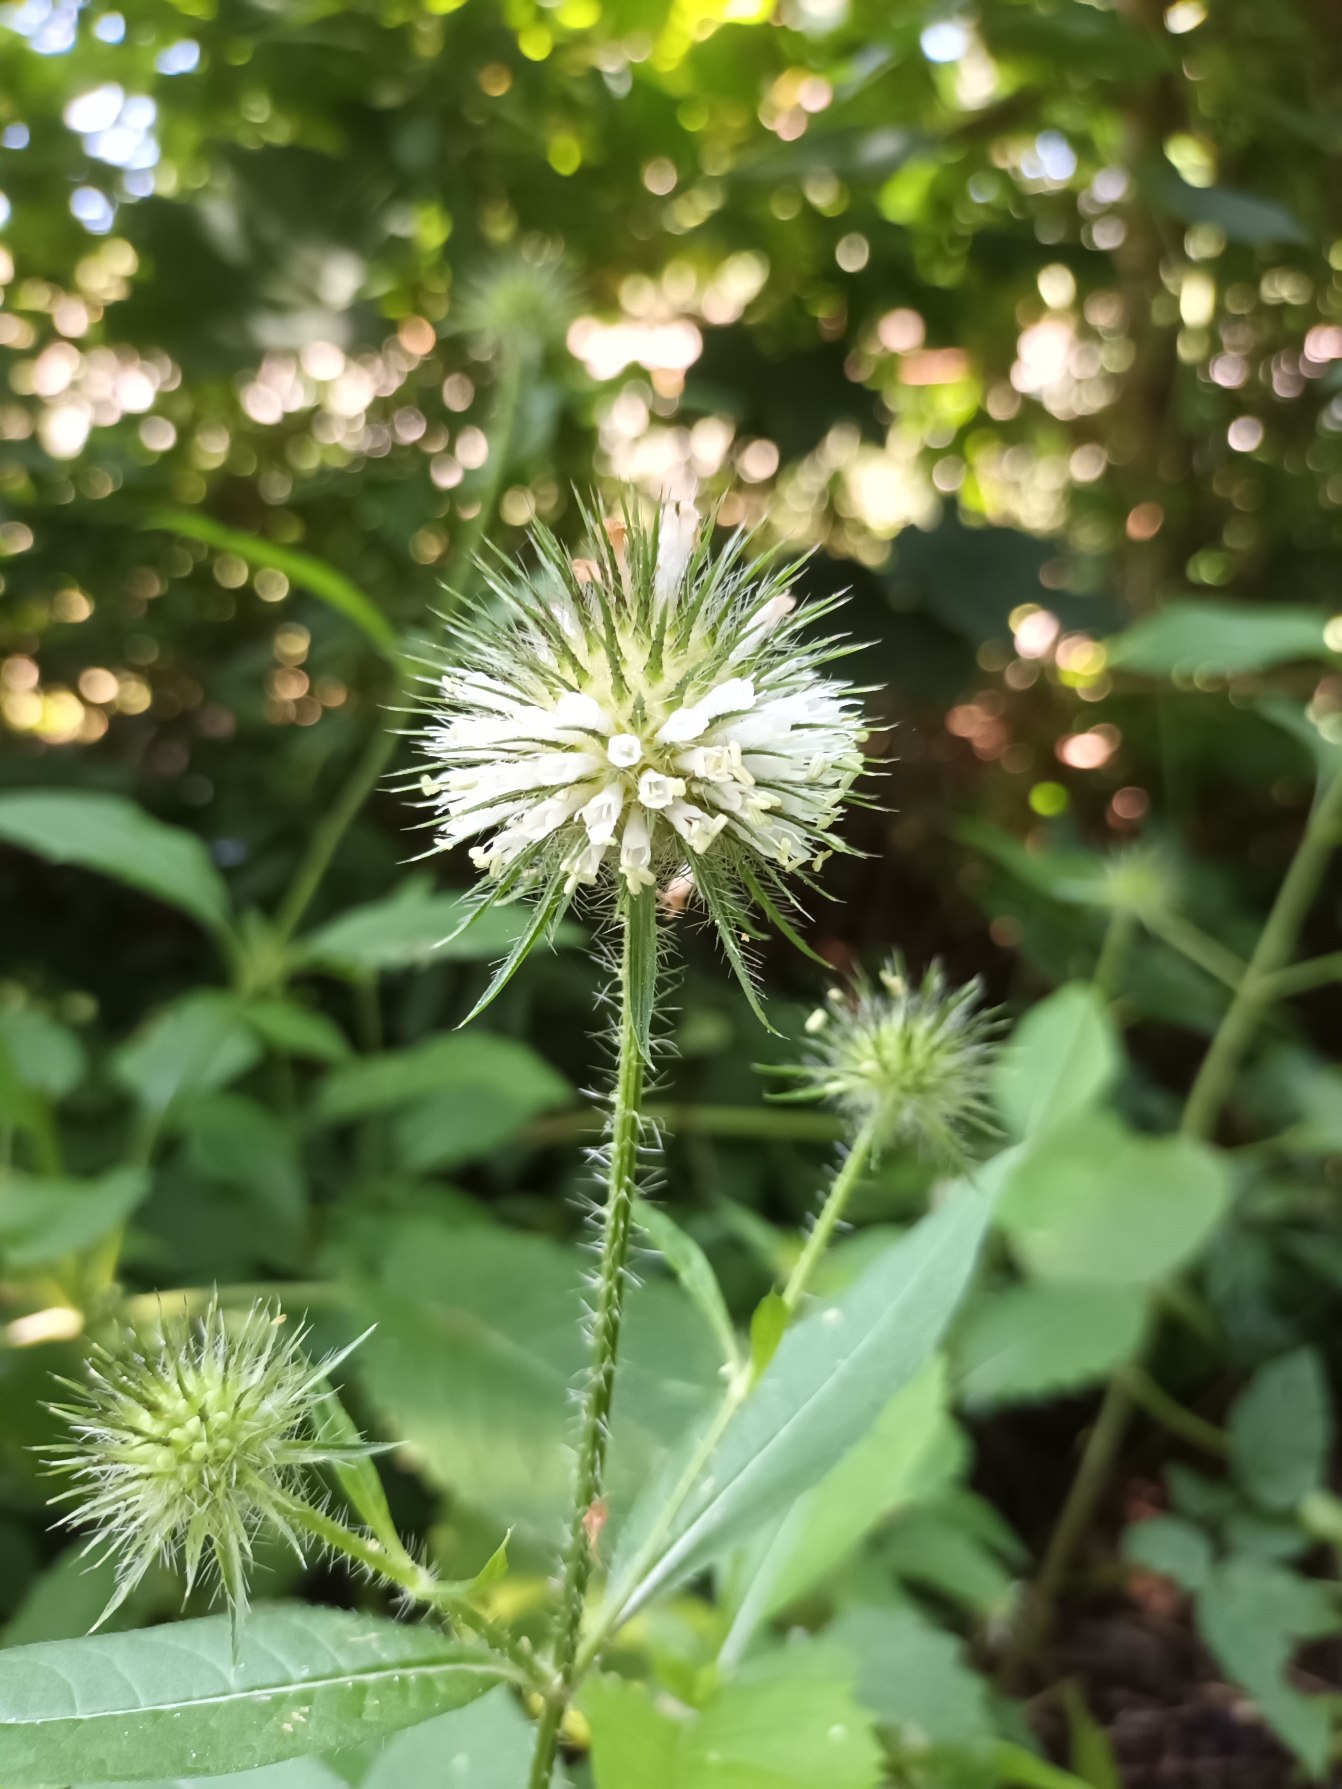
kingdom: Plantae
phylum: Tracheophyta
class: Magnoliopsida
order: Dipsacales
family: Caprifoliaceae
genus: Dipsacus
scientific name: Dipsacus strigosus
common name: Pindsvin-kartebolle
